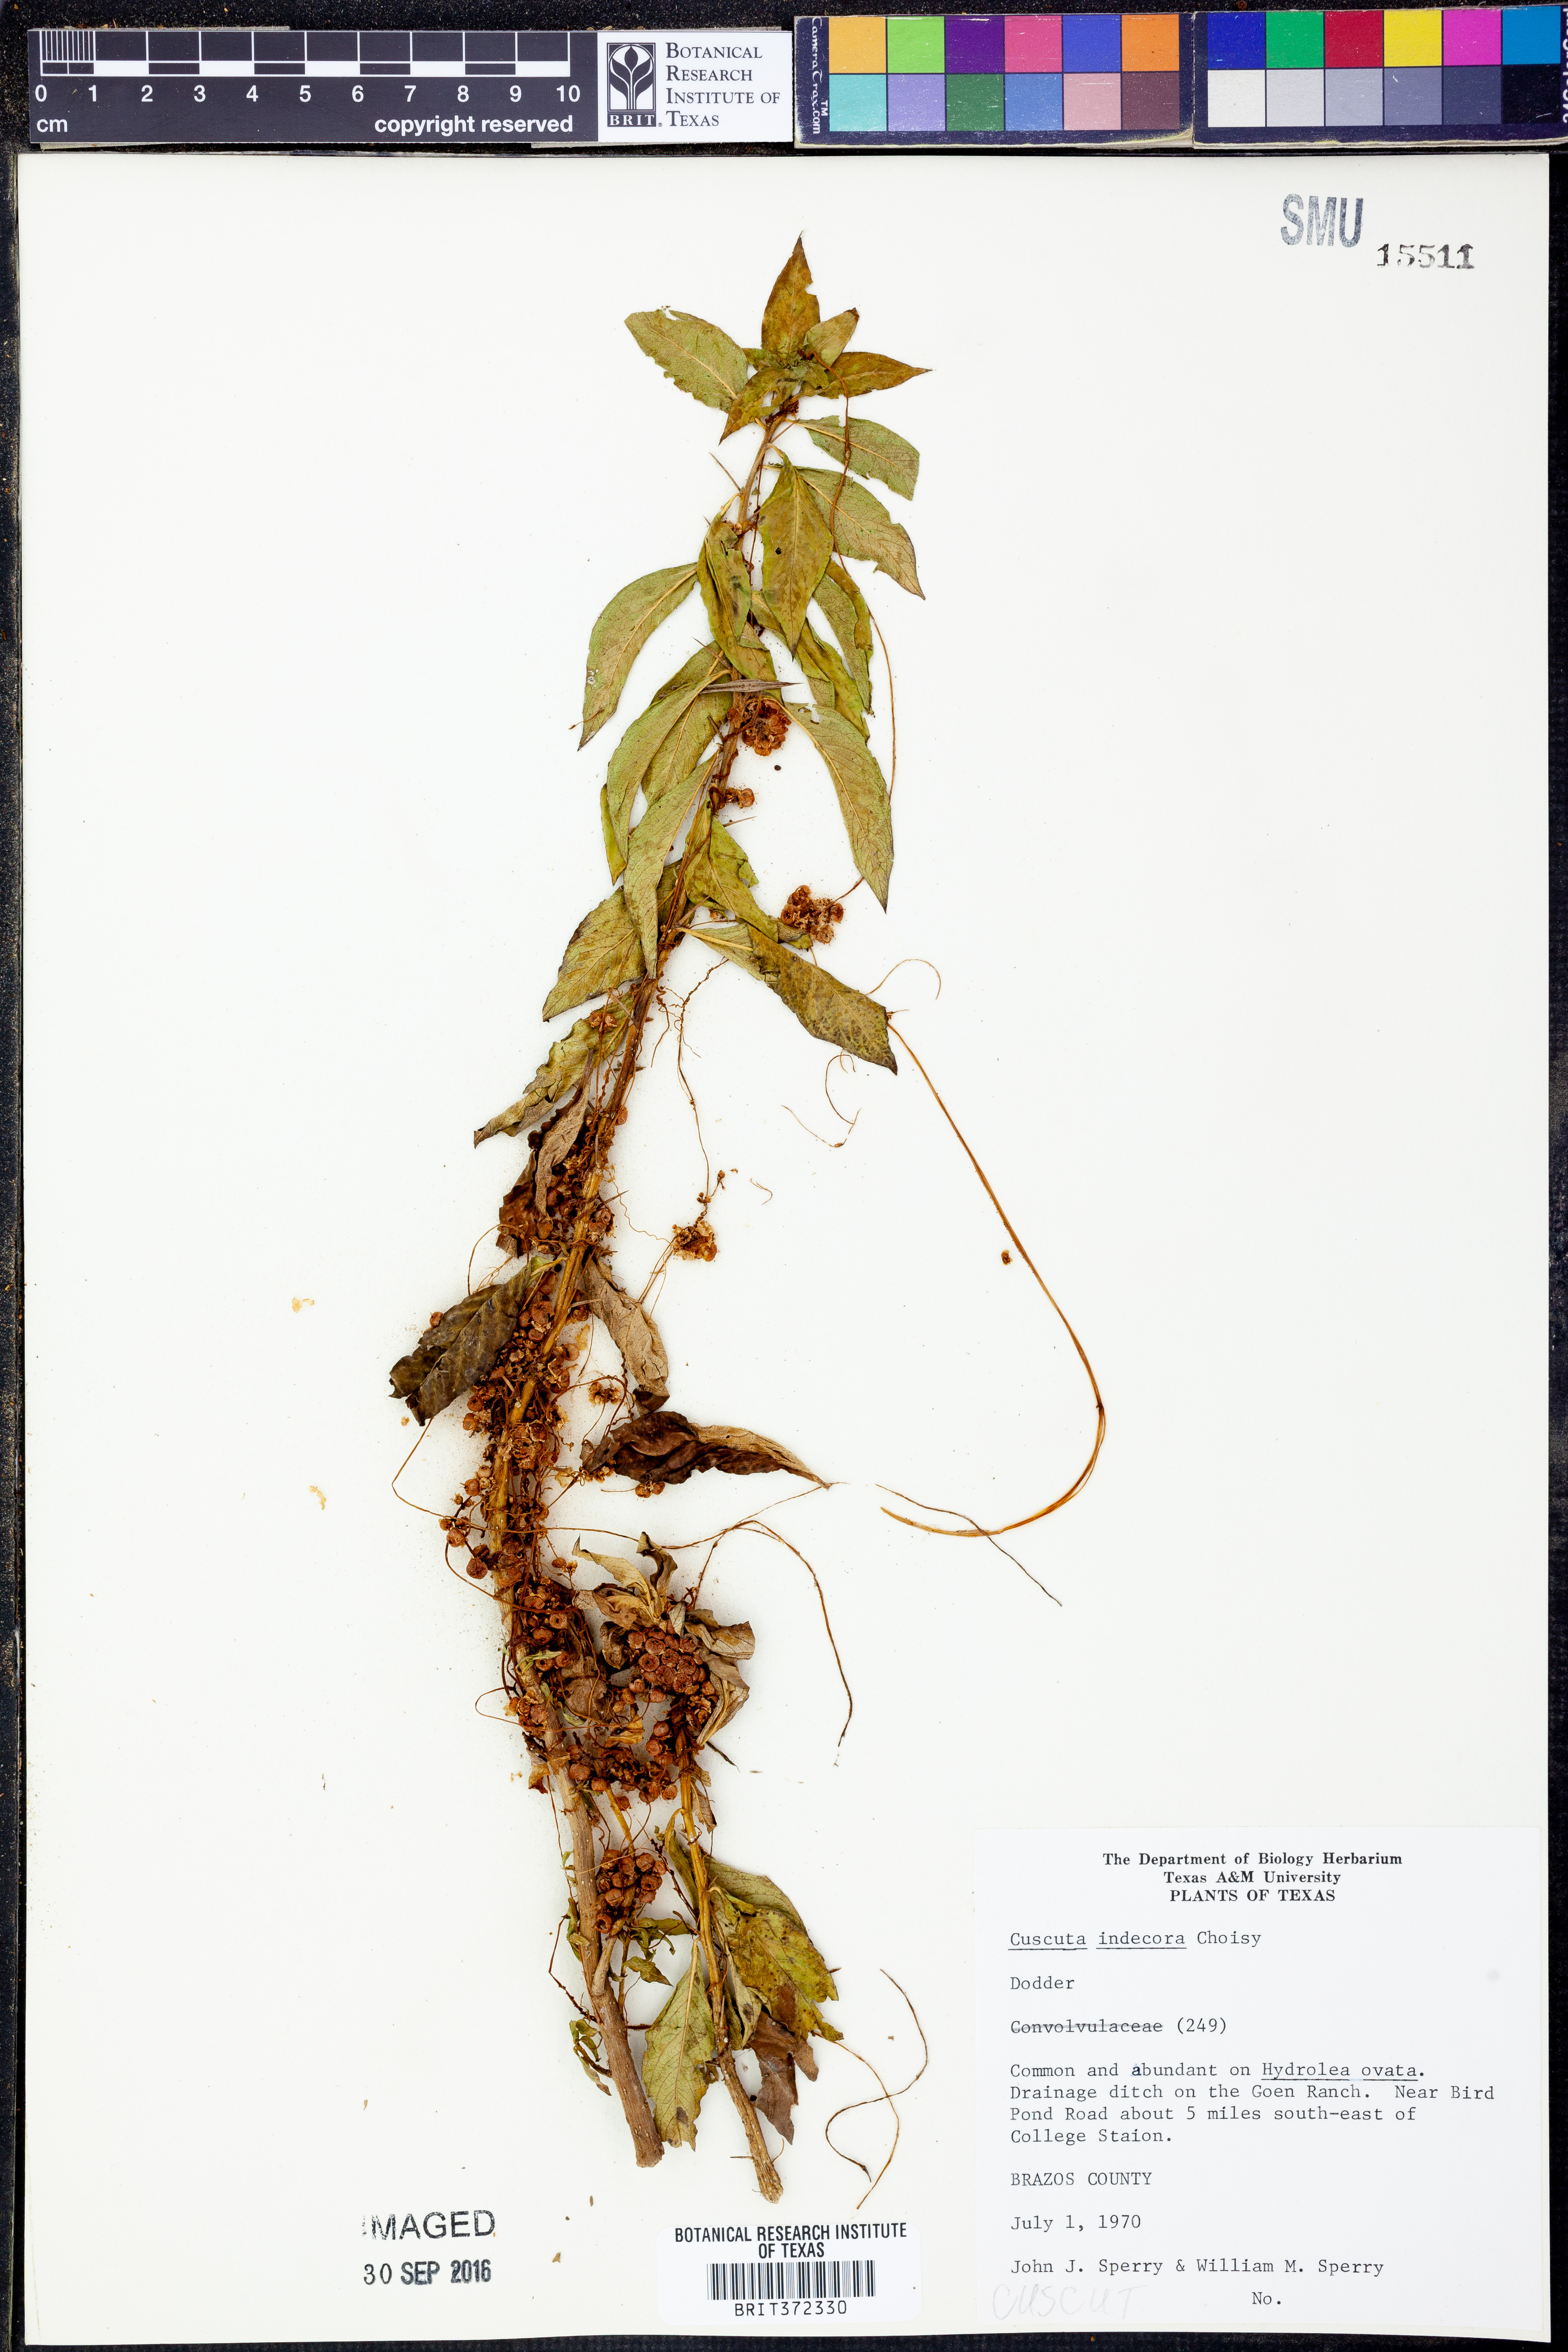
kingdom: Plantae
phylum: Tracheophyta
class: Magnoliopsida
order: Solanales
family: Convolvulaceae
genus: Cuscuta
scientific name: Cuscuta indecora
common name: Large-seed dodder
